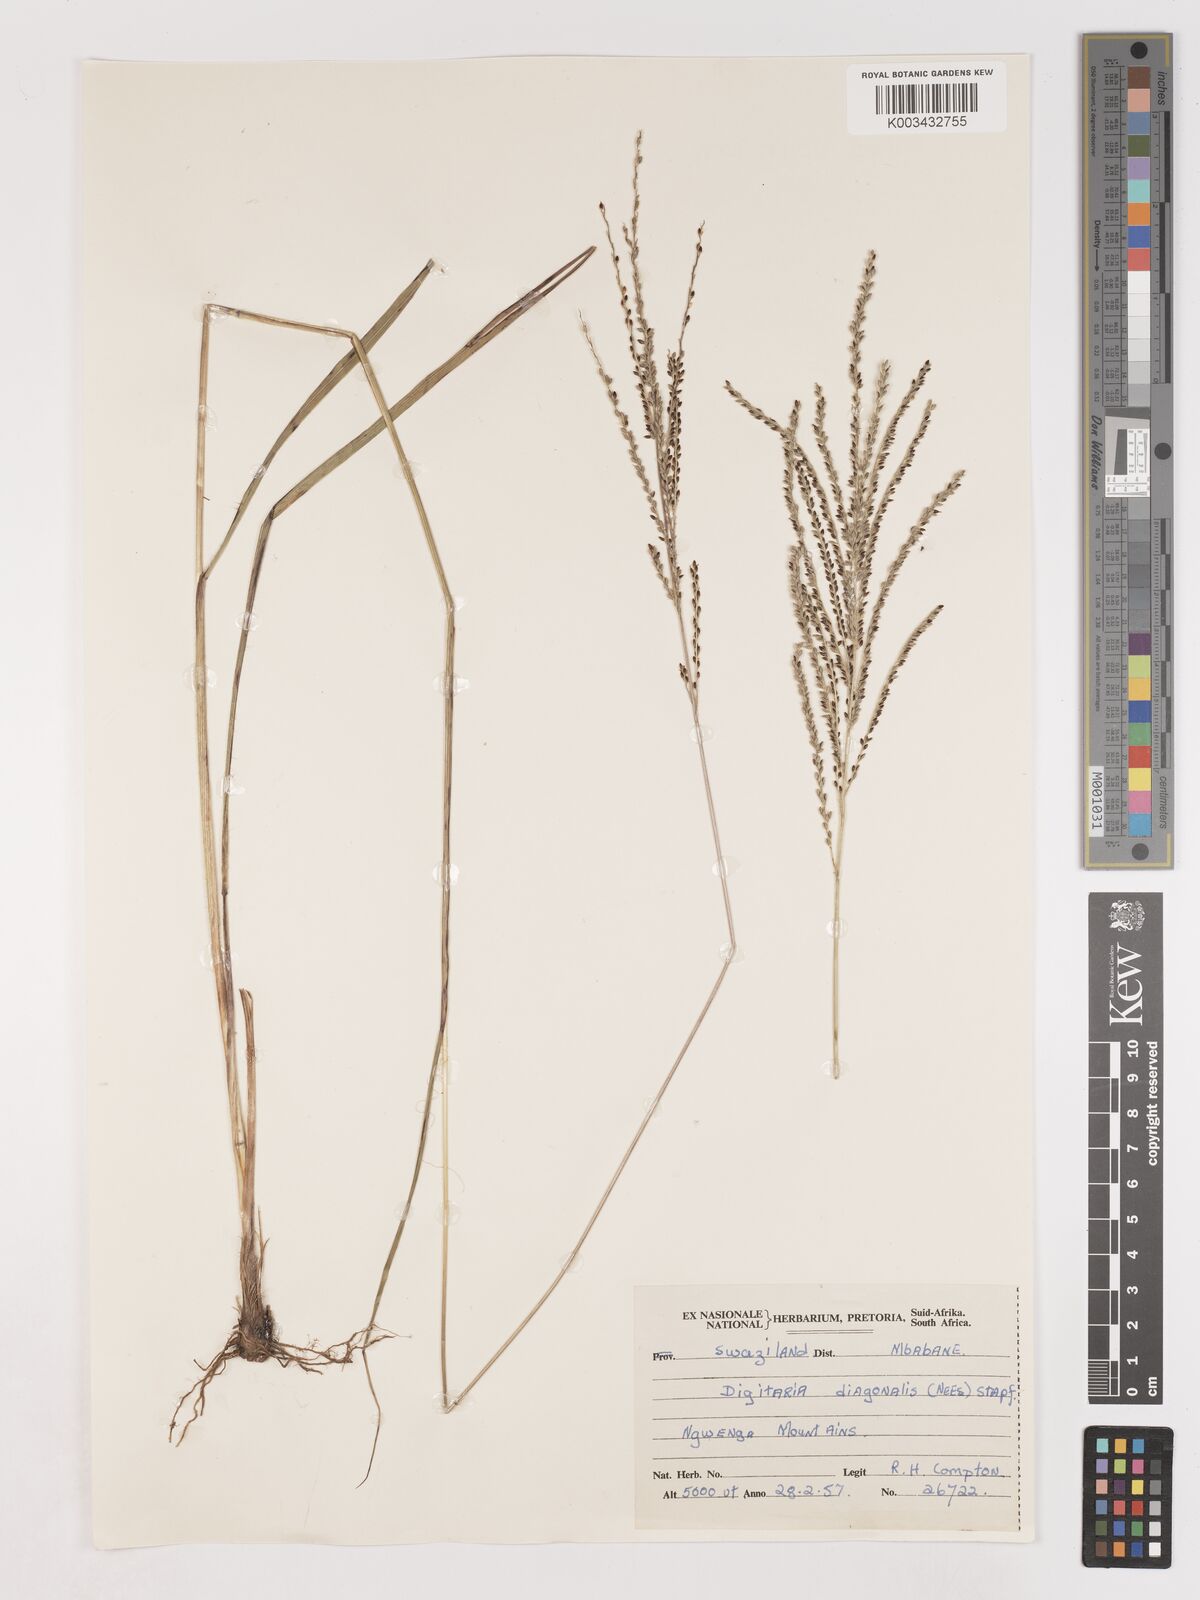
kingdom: Plantae
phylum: Tracheophyta
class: Liliopsida
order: Poales
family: Poaceae
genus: Digitaria
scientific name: Digitaria diagonalis
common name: Brown-seed finger grass
